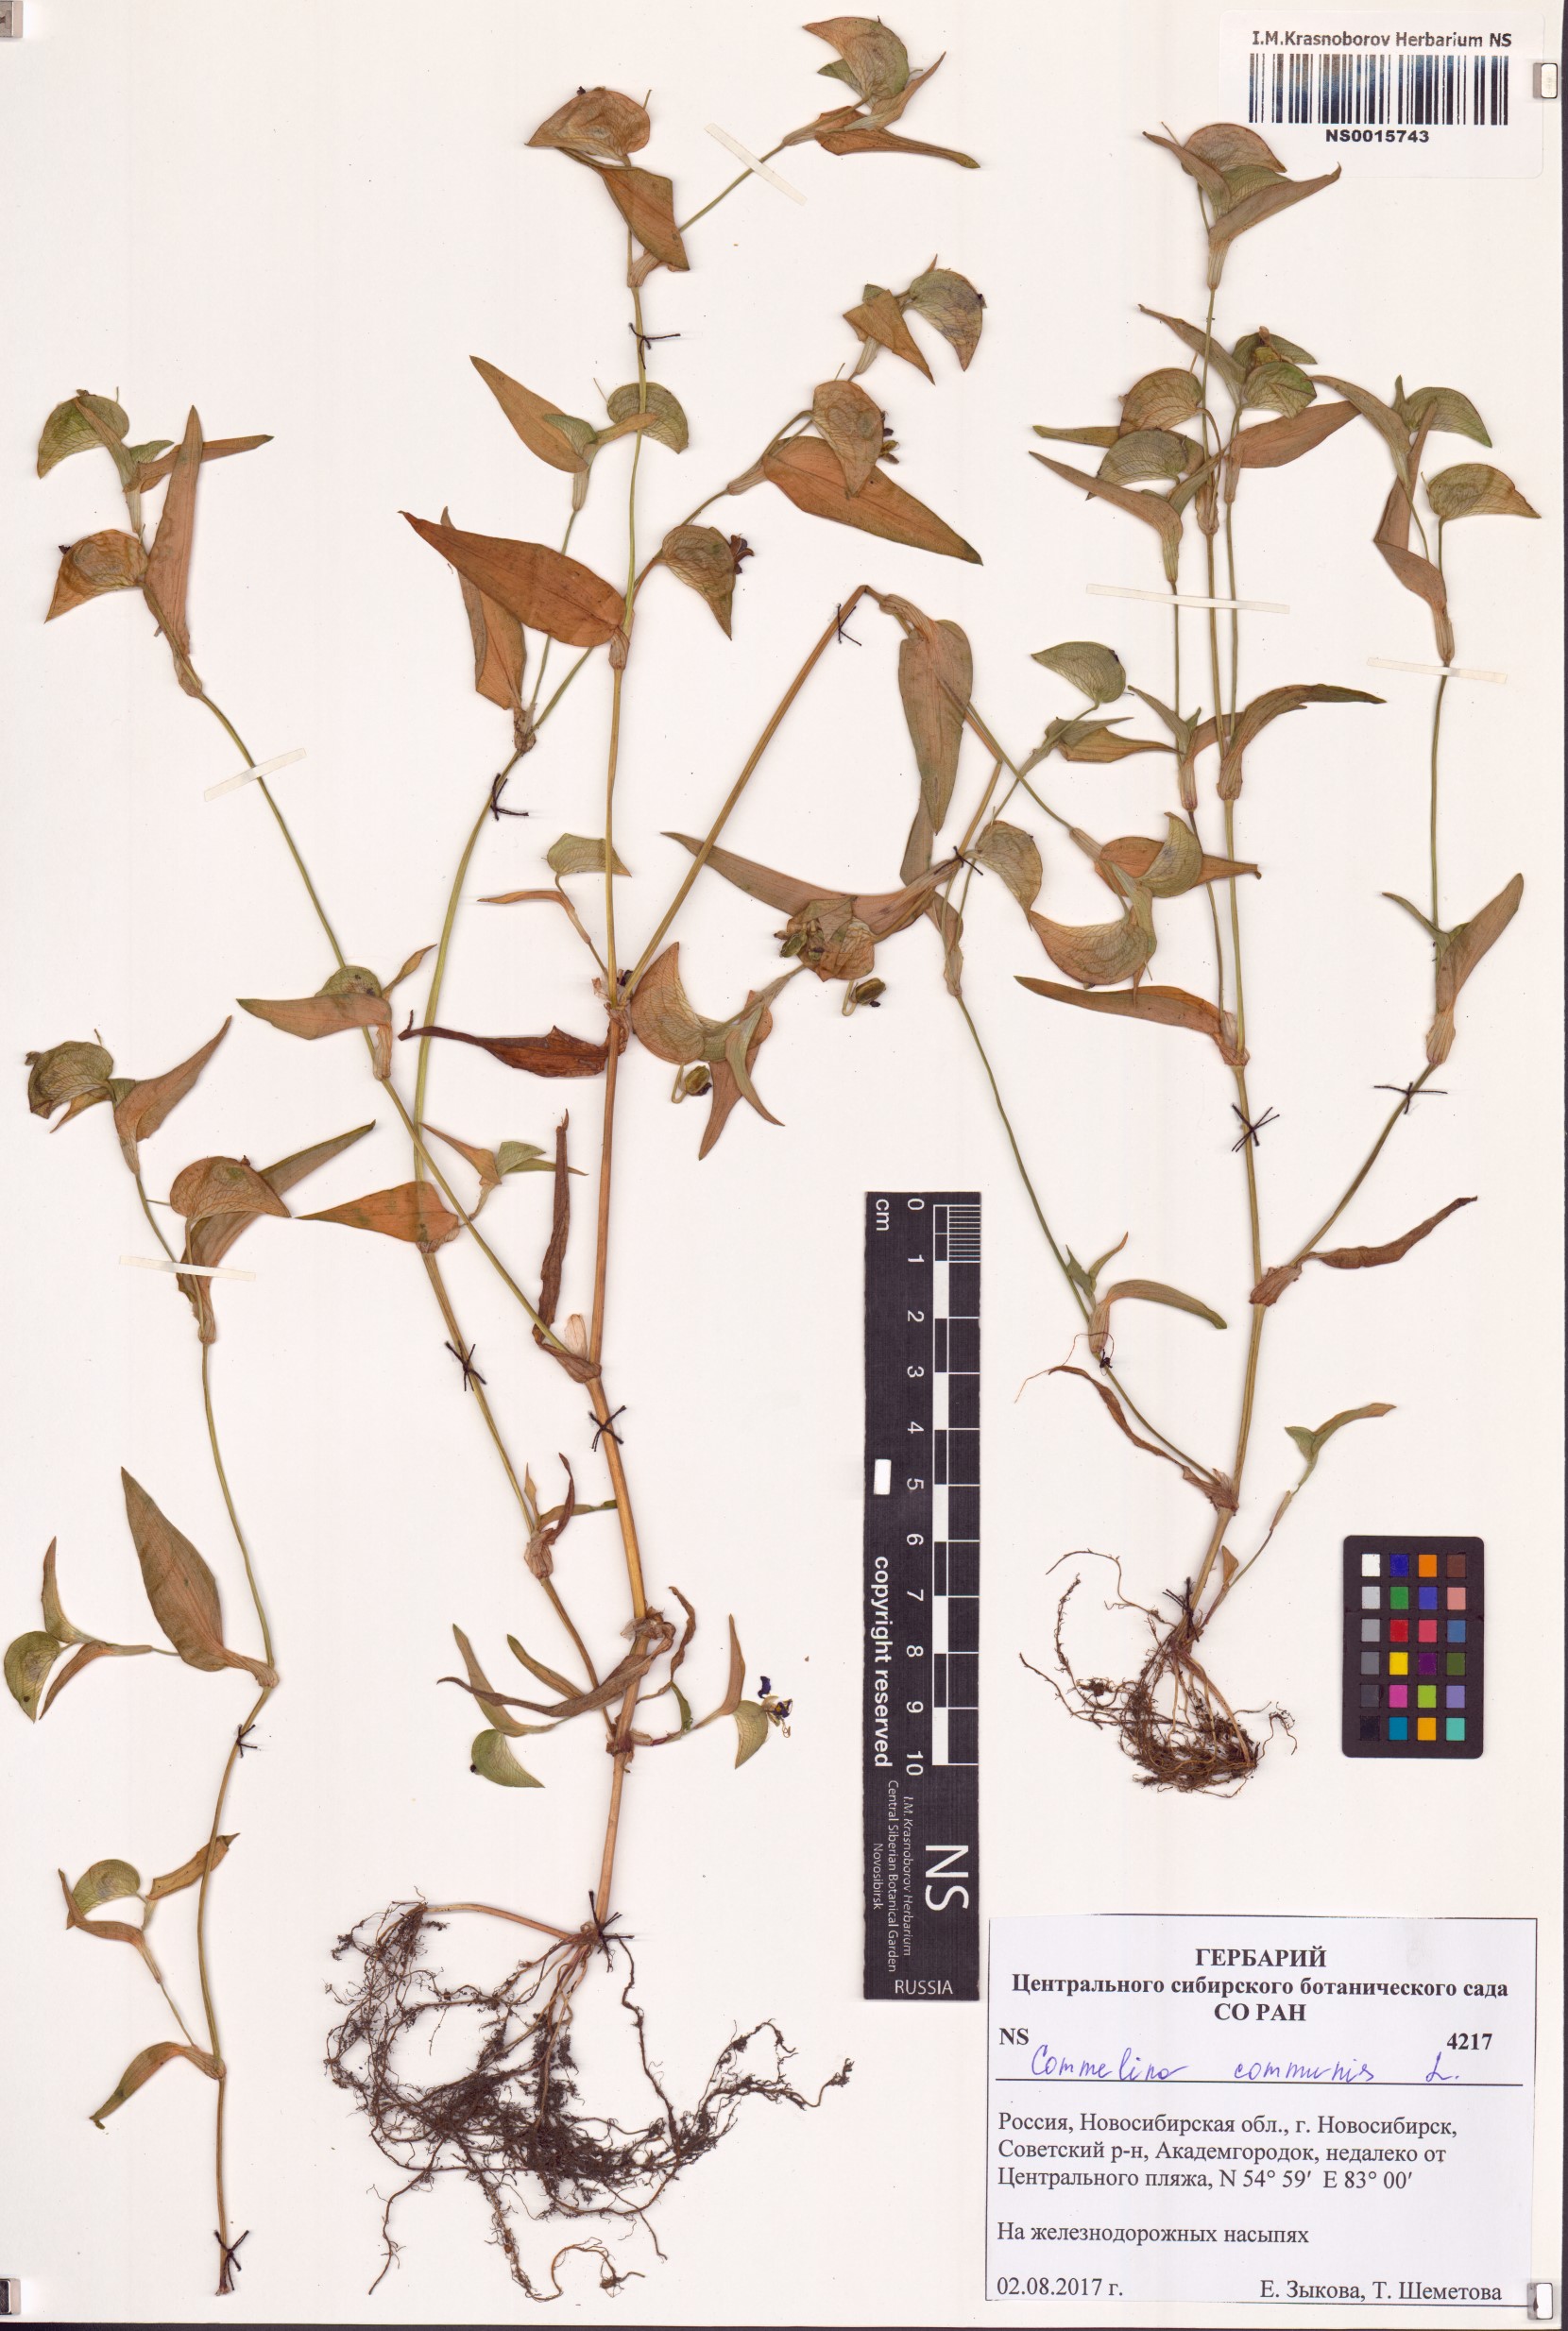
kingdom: Plantae
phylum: Tracheophyta
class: Liliopsida
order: Commelinales
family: Commelinaceae
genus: Commelina
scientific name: Commelina communis
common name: Asiatic dayflower
